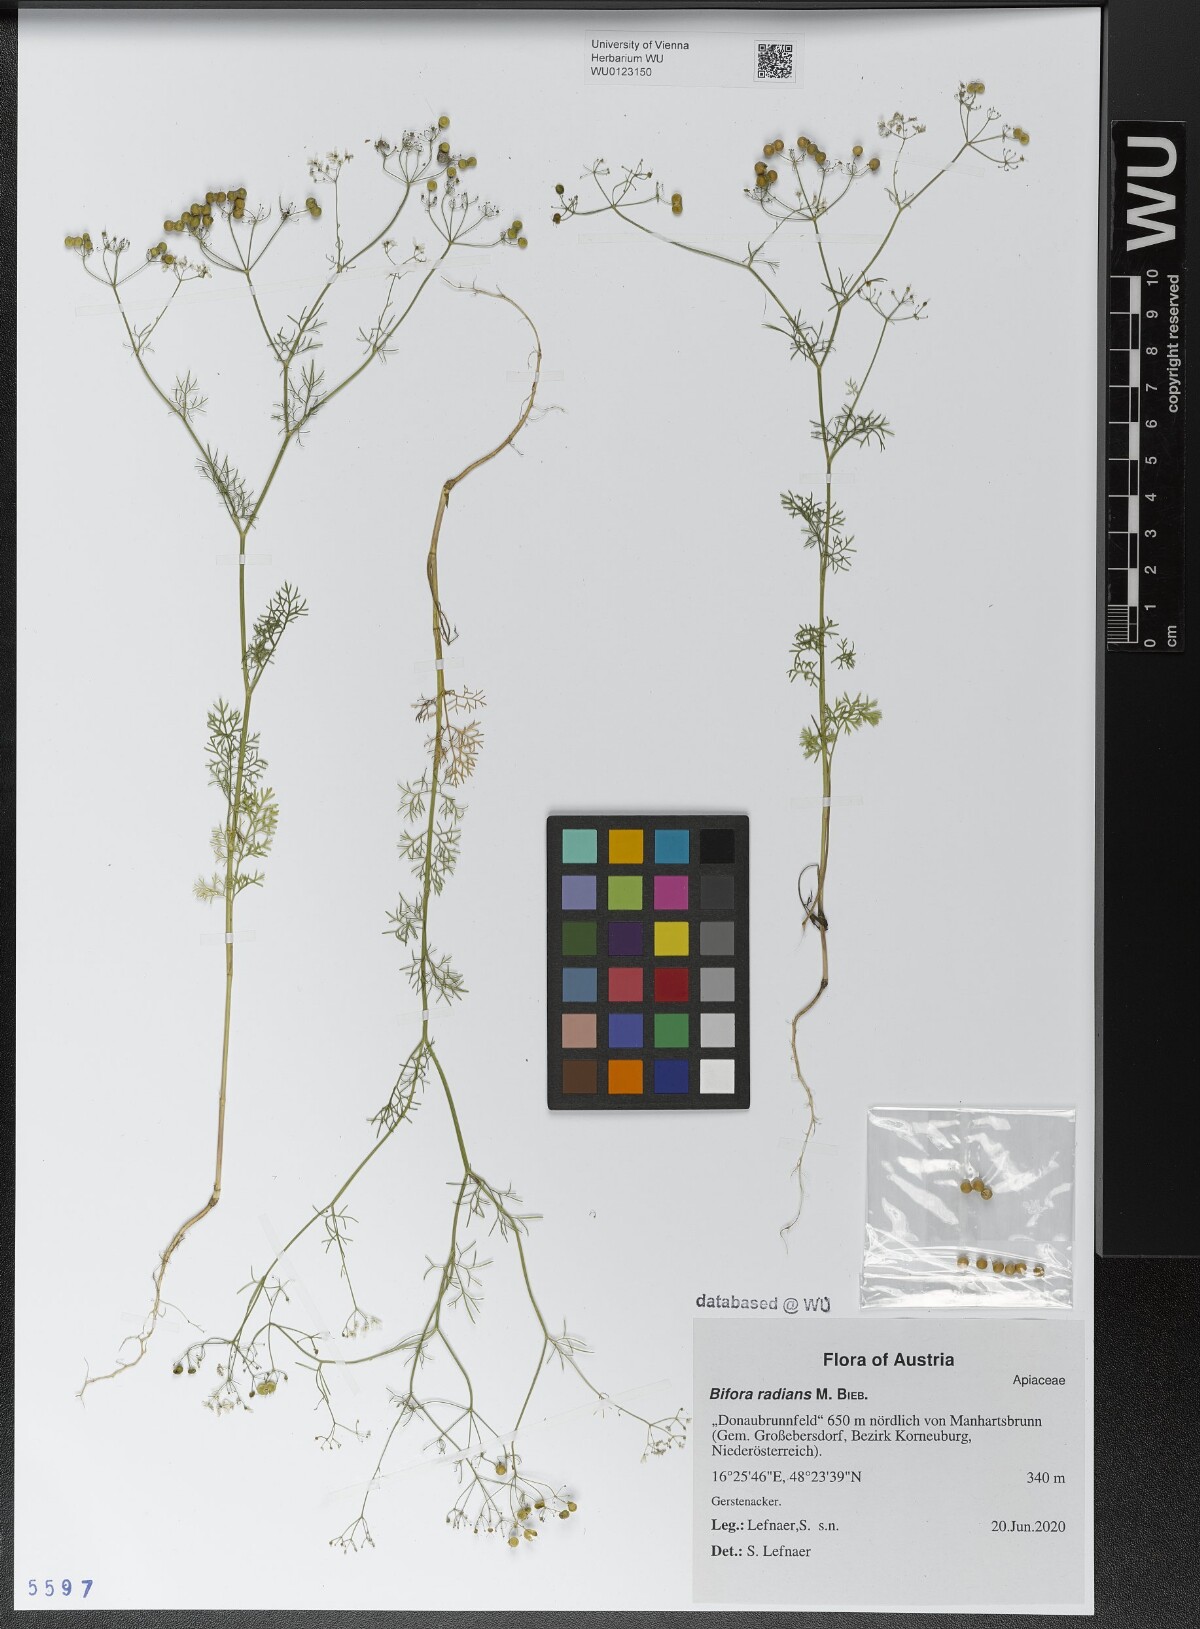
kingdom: Plantae
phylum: Tracheophyta
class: Magnoliopsida
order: Apiales
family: Apiaceae
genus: Bifora
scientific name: Bifora radians
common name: Wild bishop
